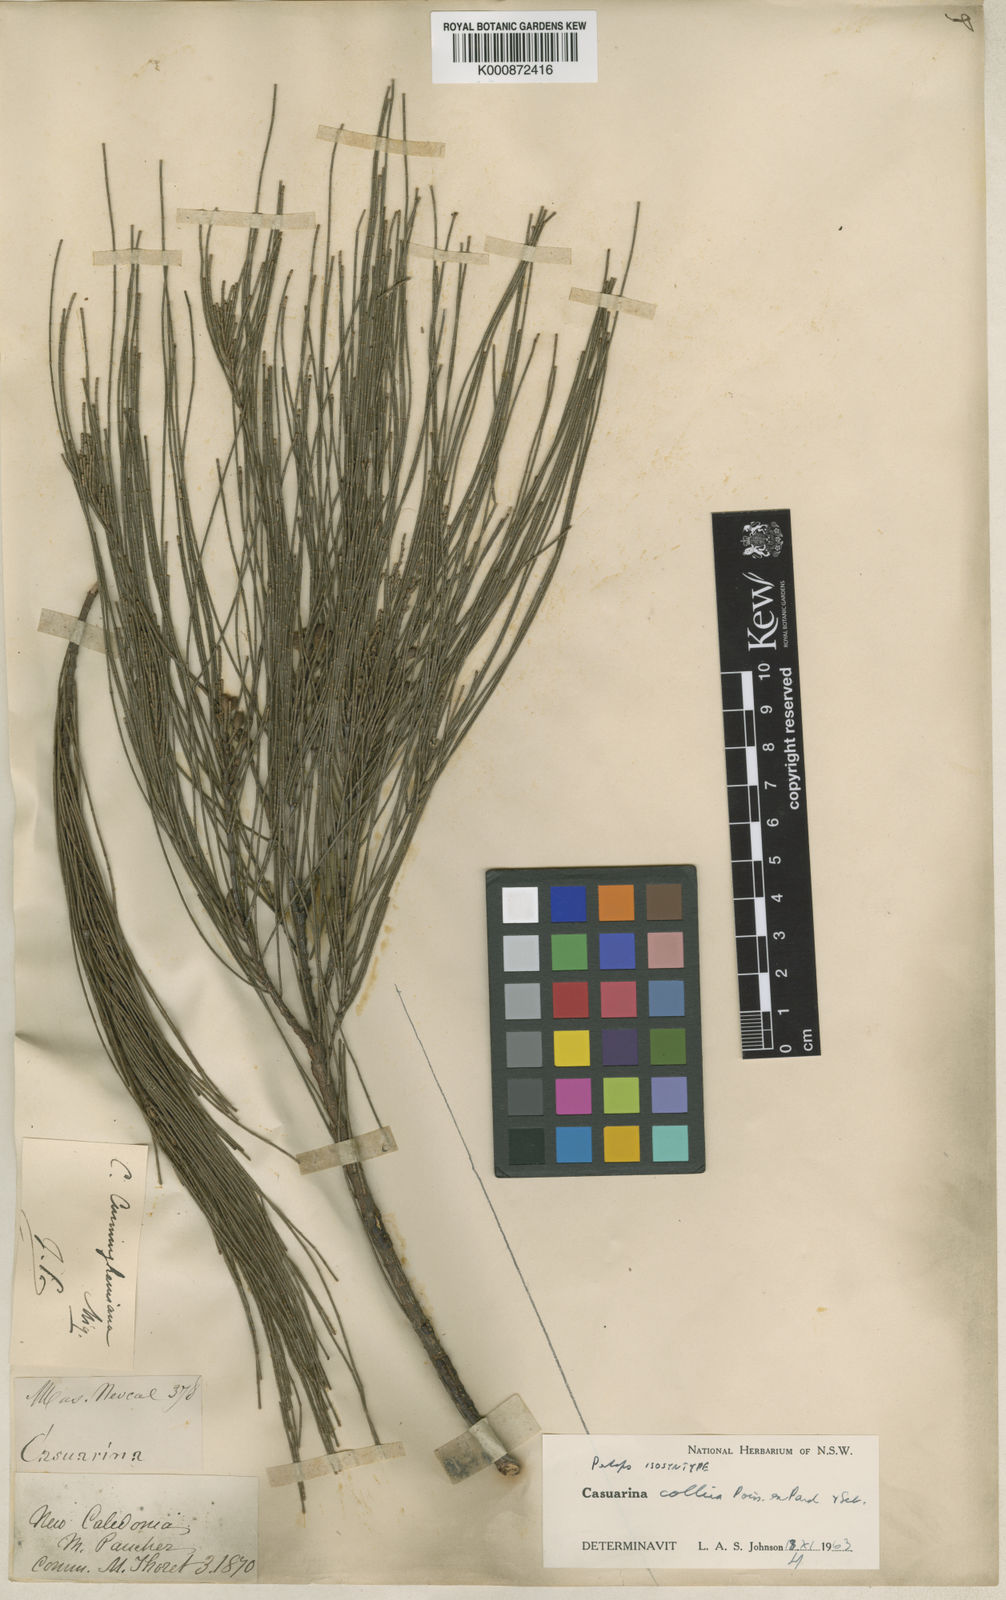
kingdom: Plantae
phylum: Tracheophyta
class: Magnoliopsida
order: Fagales
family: Casuarinaceae
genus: Casuarina
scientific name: Casuarina collina
